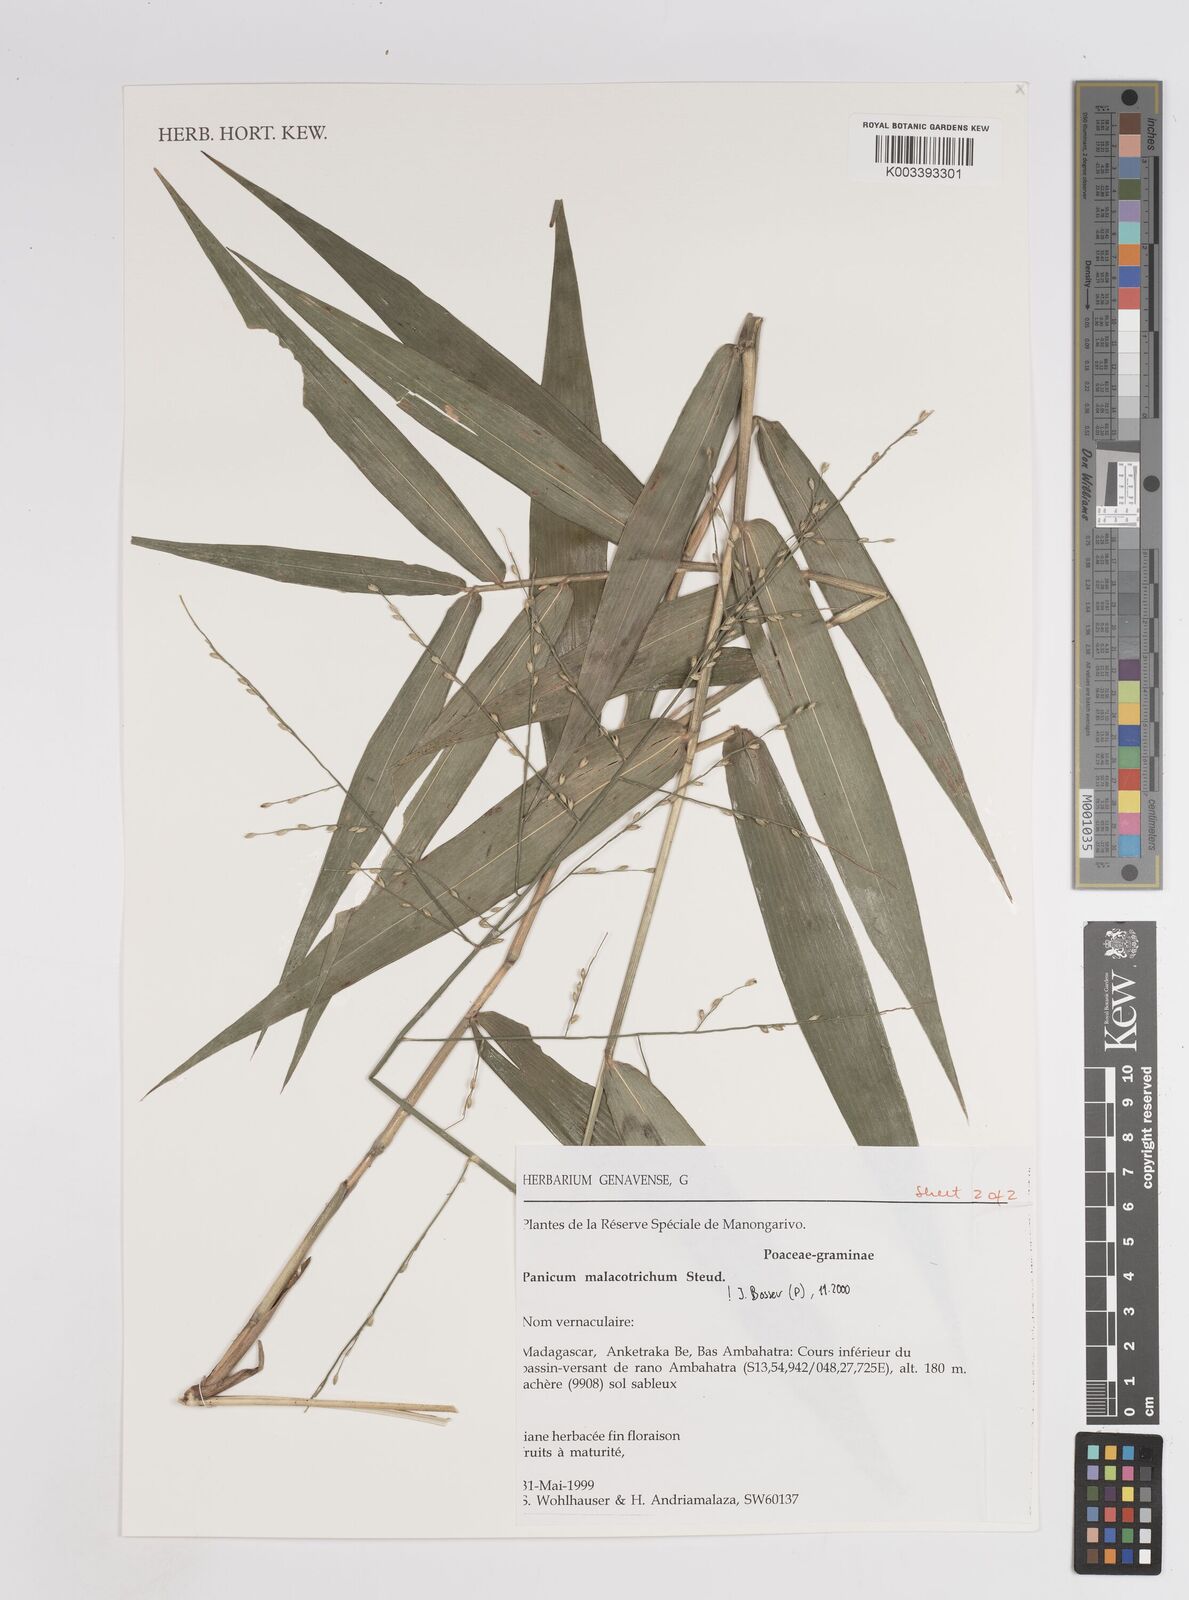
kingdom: Plantae
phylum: Tracheophyta
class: Liliopsida
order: Poales
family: Poaceae
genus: Panicum
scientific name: Panicum malacotrichum
